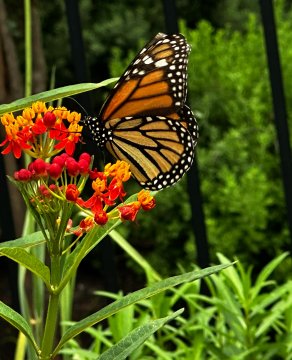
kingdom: Animalia
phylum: Arthropoda
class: Insecta
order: Lepidoptera
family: Nymphalidae
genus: Danaus
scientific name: Danaus plexippus
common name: Monarch
